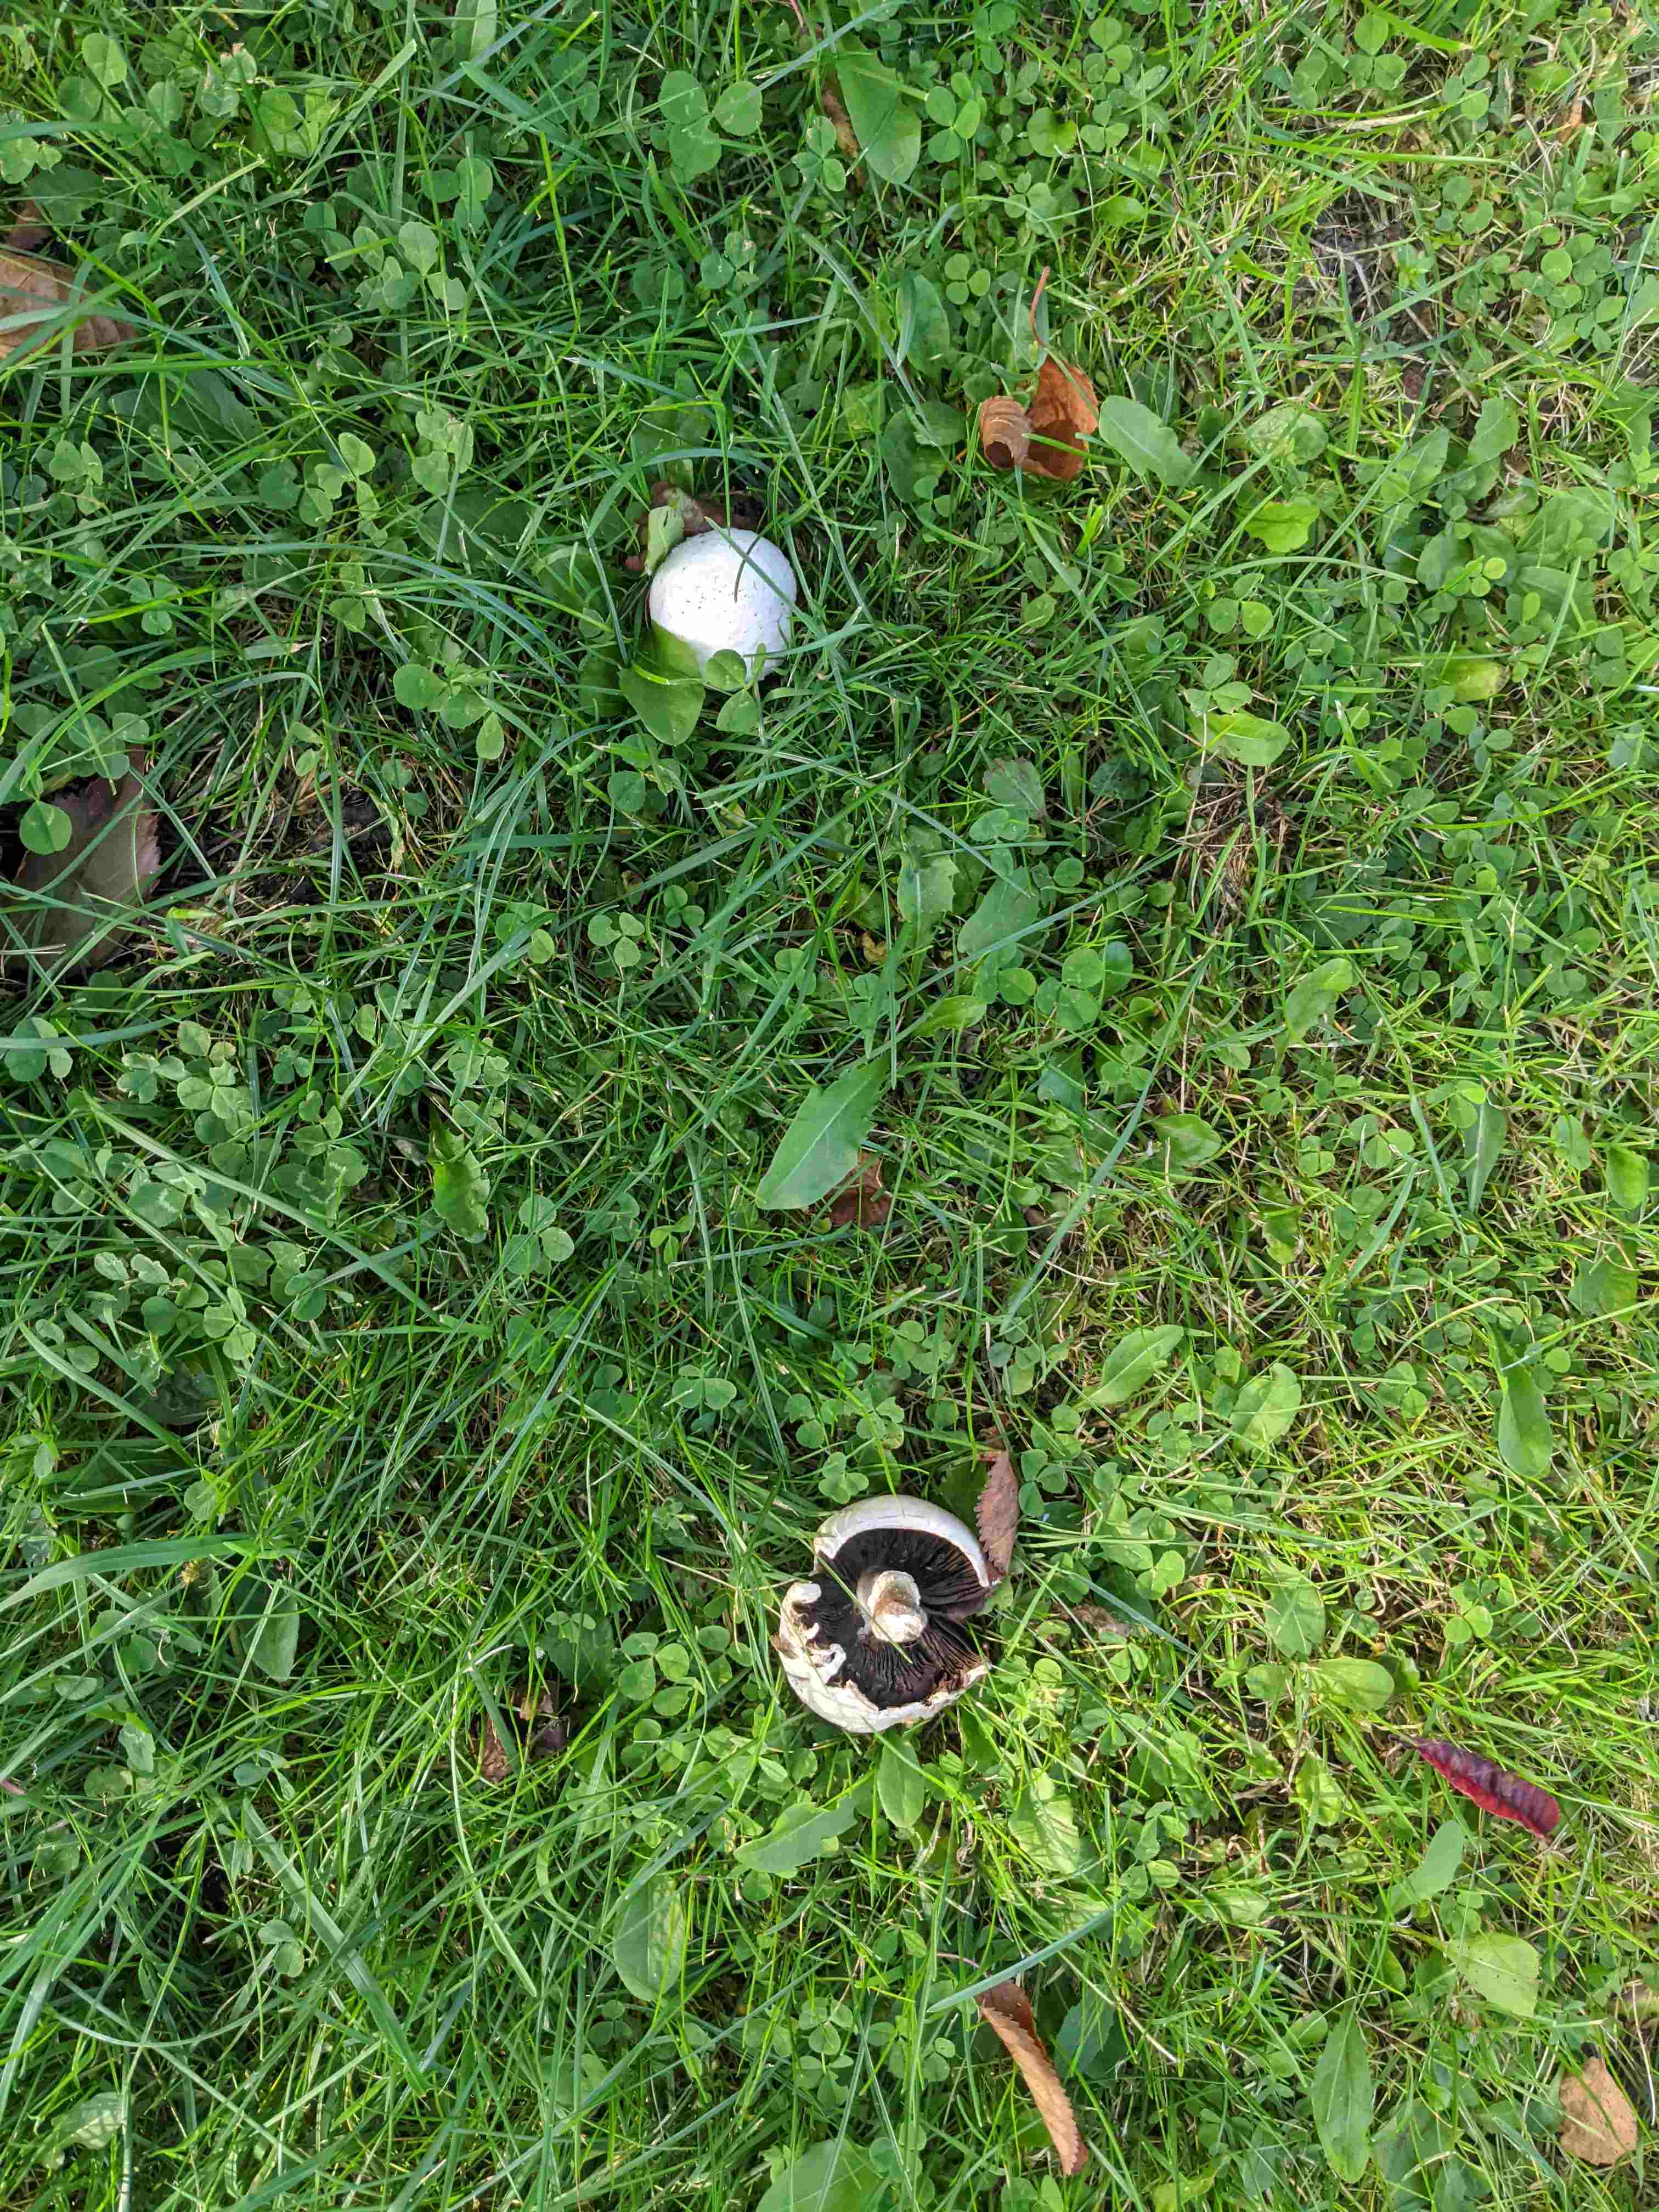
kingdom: Fungi
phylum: Basidiomycota
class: Agaricomycetes
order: Agaricales
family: Agaricaceae
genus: Agaricus
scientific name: Agaricus
